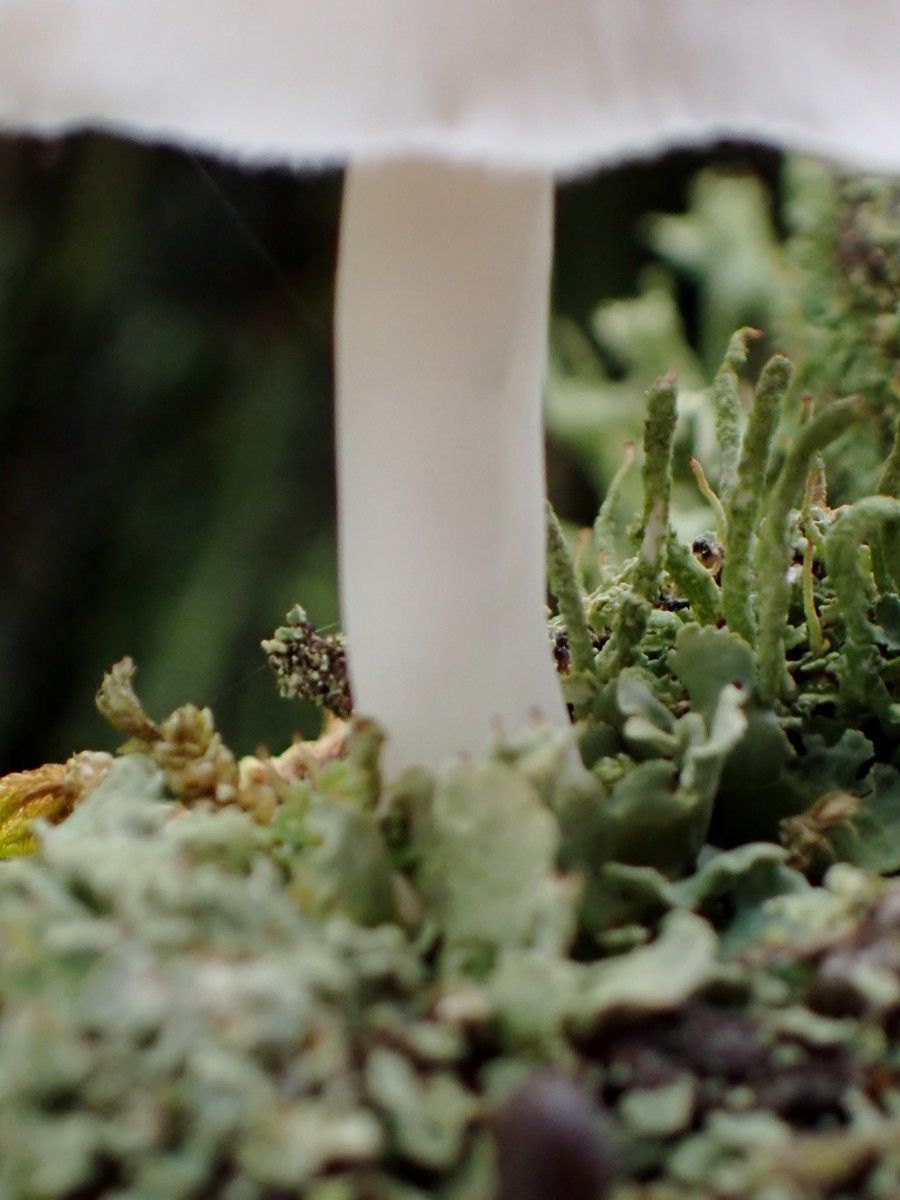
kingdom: Fungi
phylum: Basidiomycota
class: Agaricomycetes
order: Agaricales
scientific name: Agaricales
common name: champignonordenen
